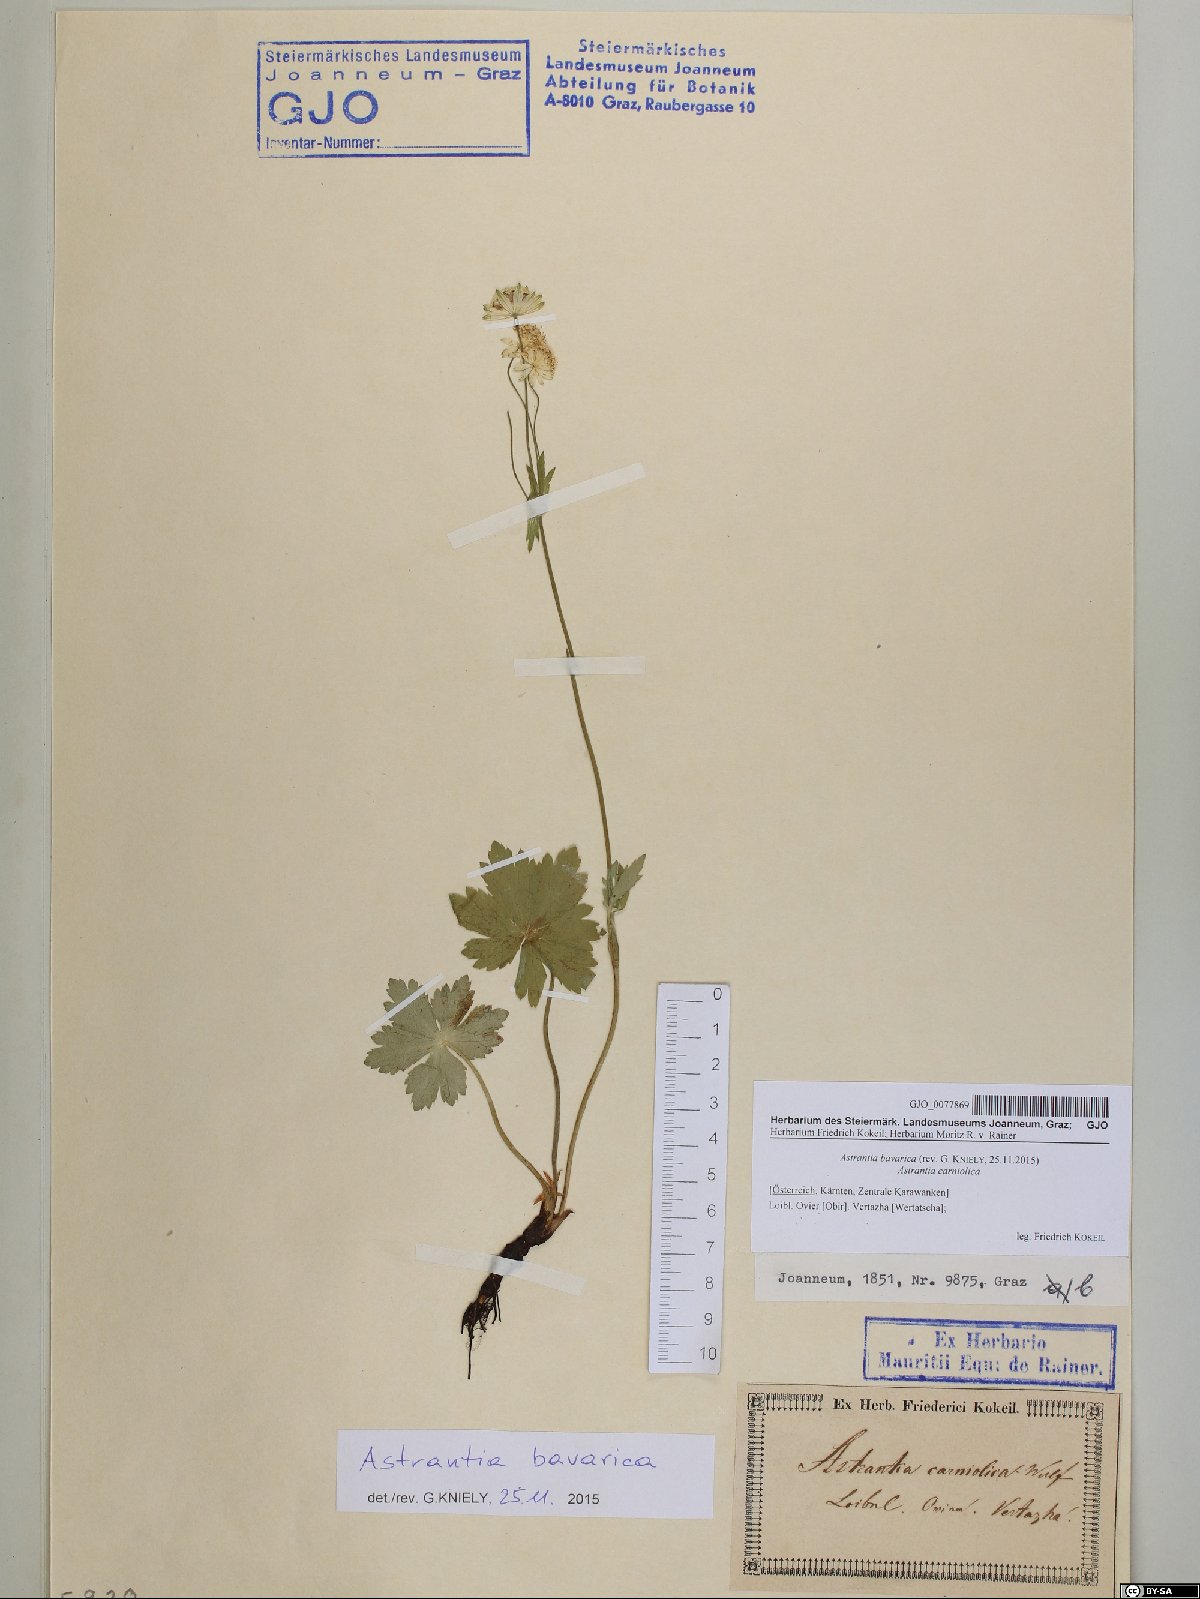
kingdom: Plantae
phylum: Tracheophyta
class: Magnoliopsida
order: Apiales
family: Apiaceae
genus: Astrantia
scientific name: Astrantia bavarica
